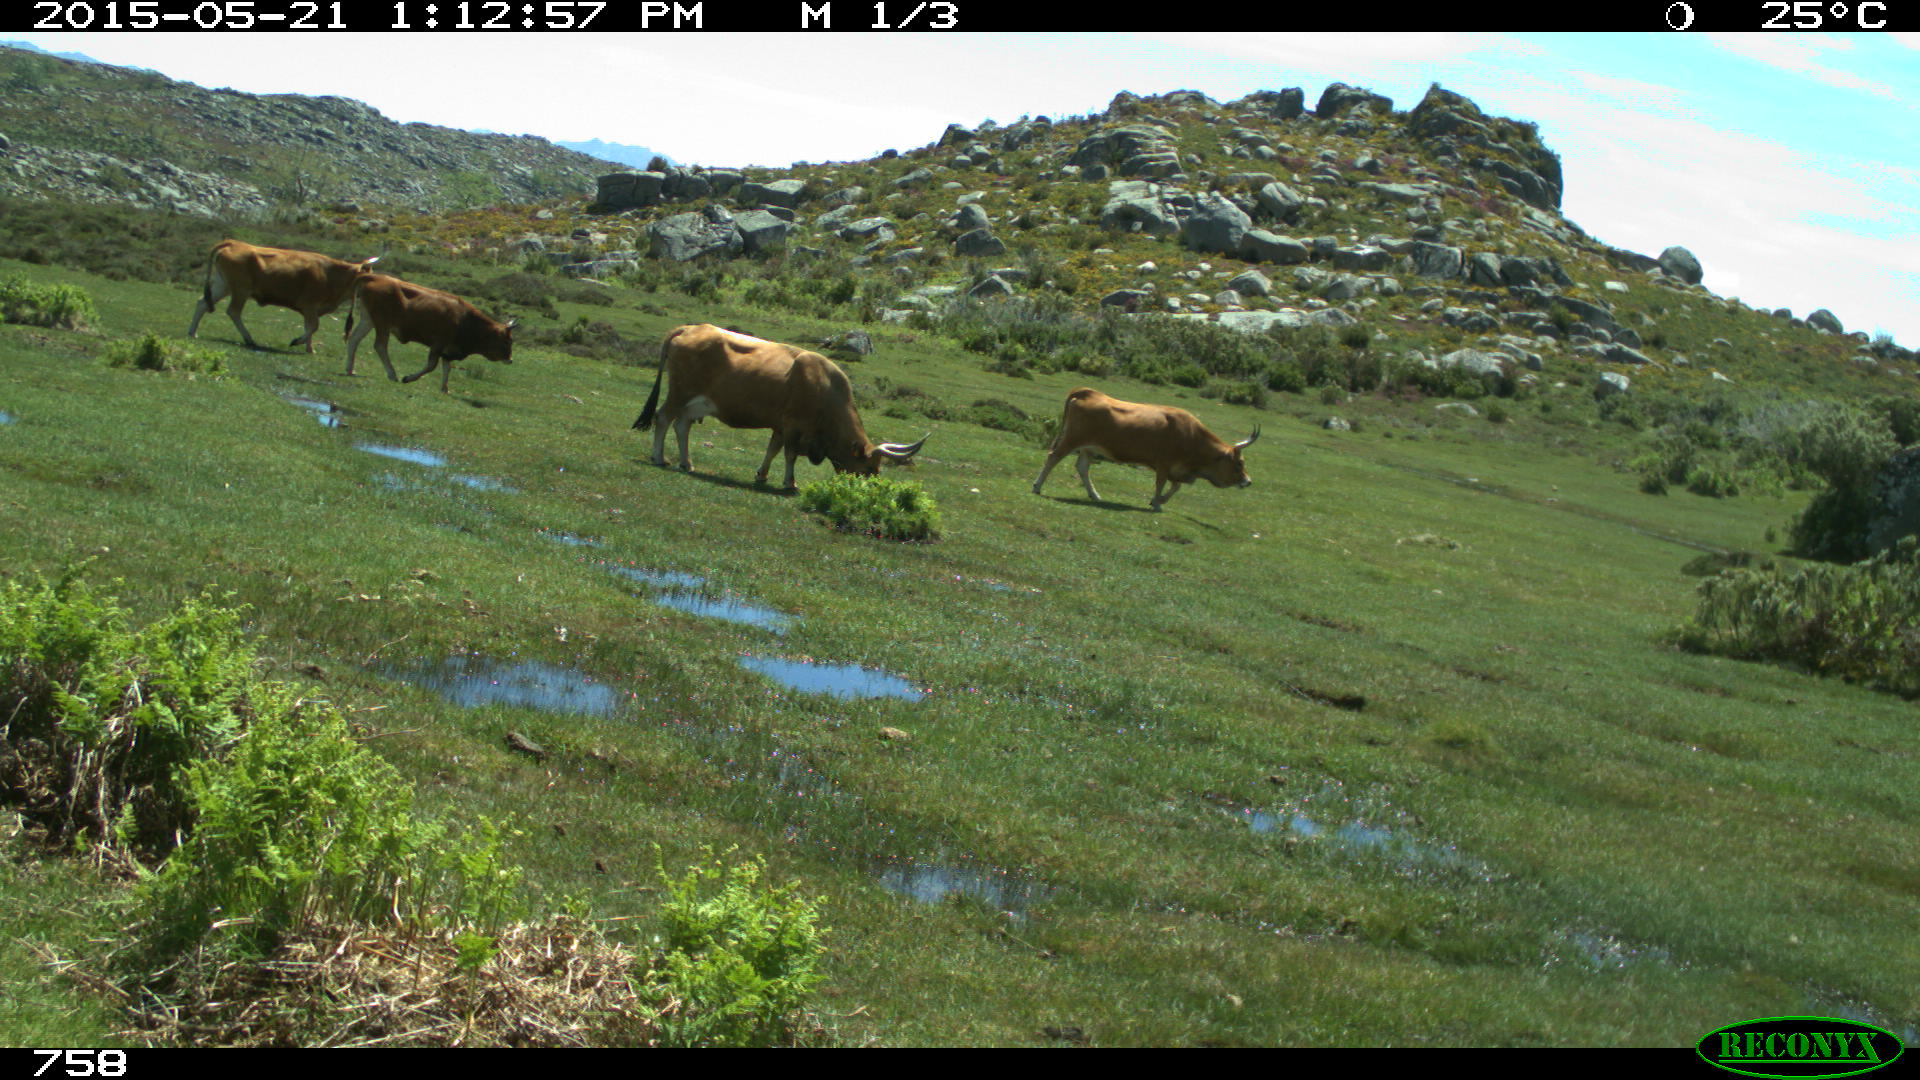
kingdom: Animalia
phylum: Chordata
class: Mammalia
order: Artiodactyla
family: Bovidae
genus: Bos
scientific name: Bos taurus
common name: Domesticated cattle
